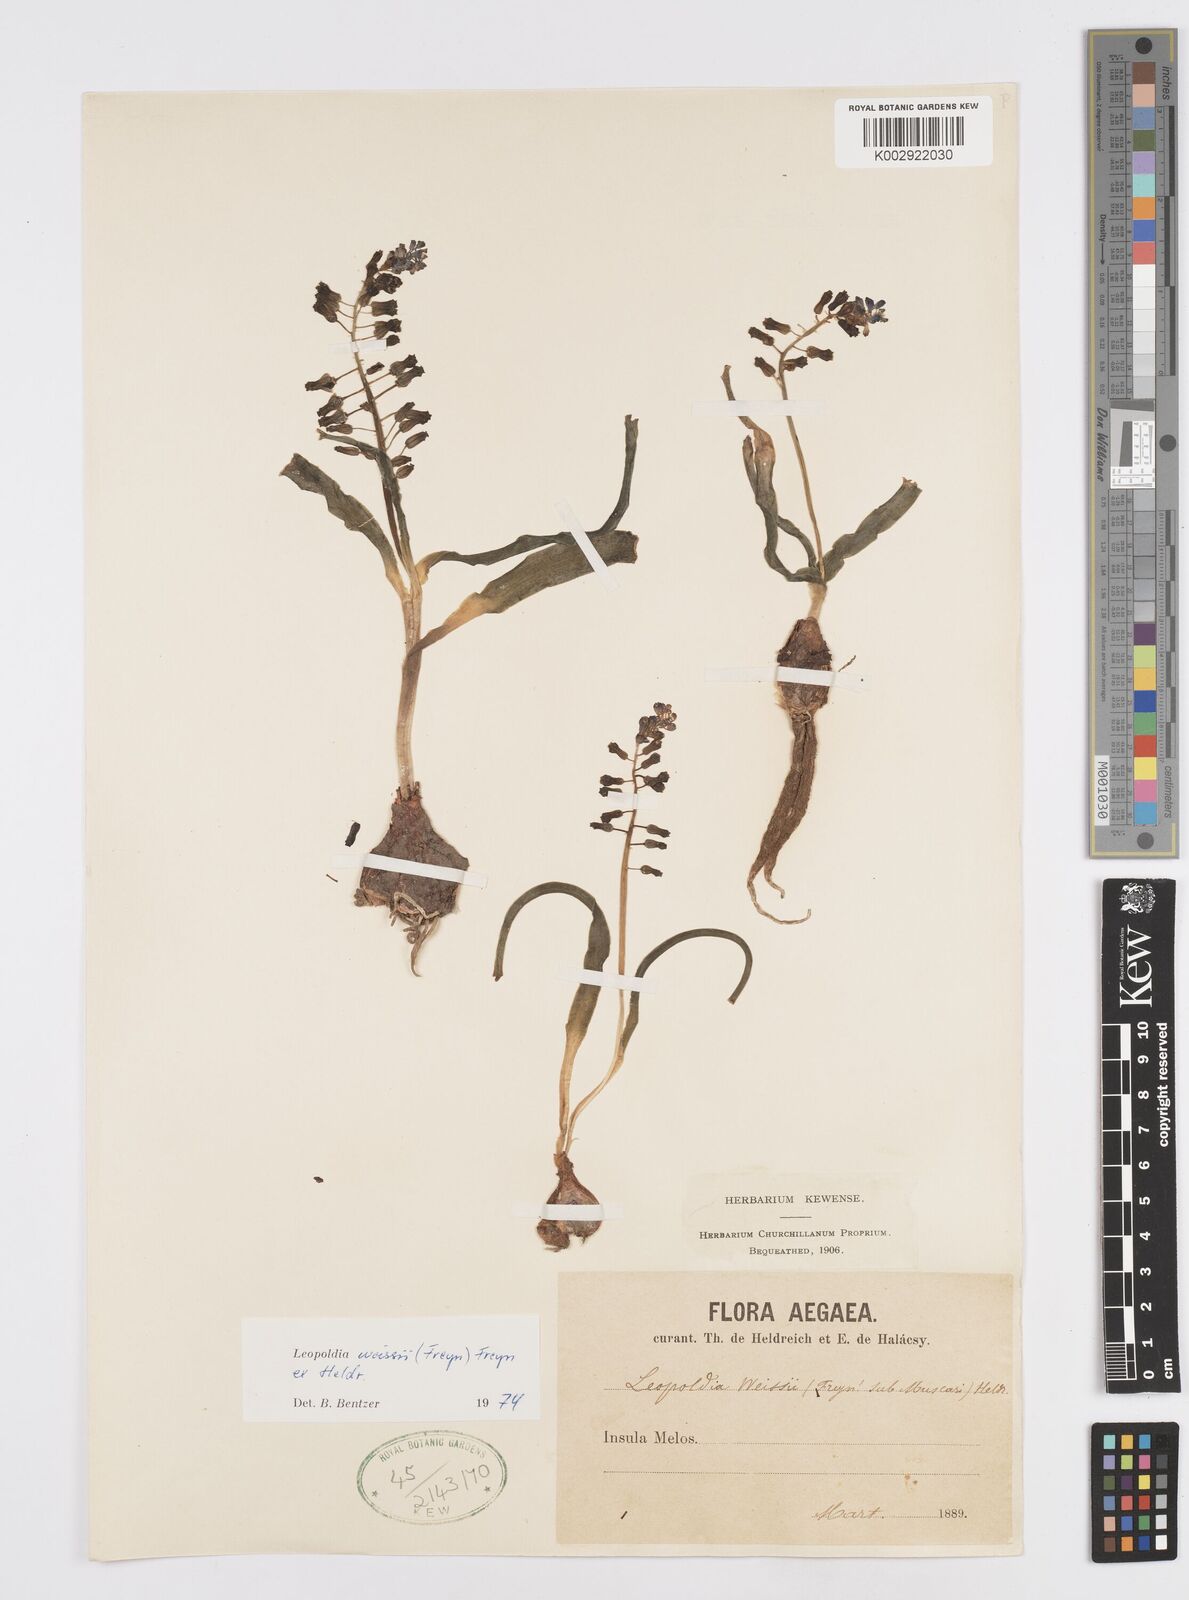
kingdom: Plantae
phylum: Tracheophyta
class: Liliopsida
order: Asparagales
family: Asparagaceae
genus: Muscari
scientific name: Muscari weissii
